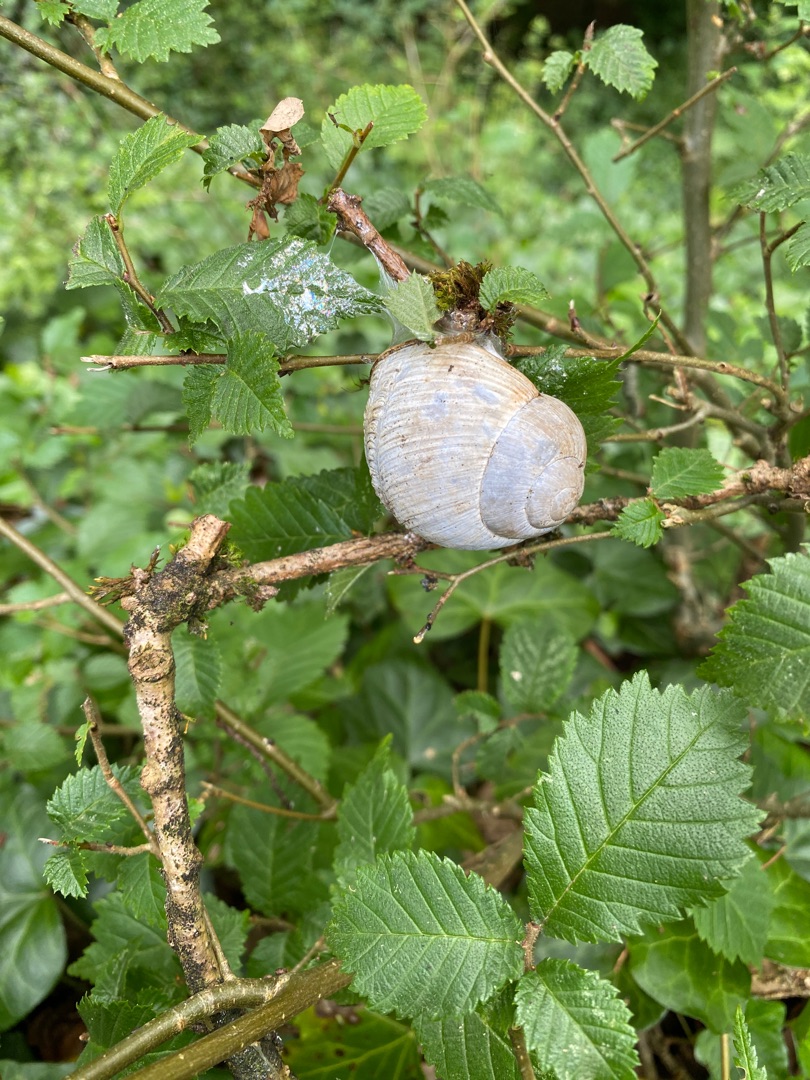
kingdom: Animalia
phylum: Mollusca
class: Gastropoda
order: Stylommatophora
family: Helicidae
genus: Helix
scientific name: Helix pomatia
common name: Vinbjergsnegl
